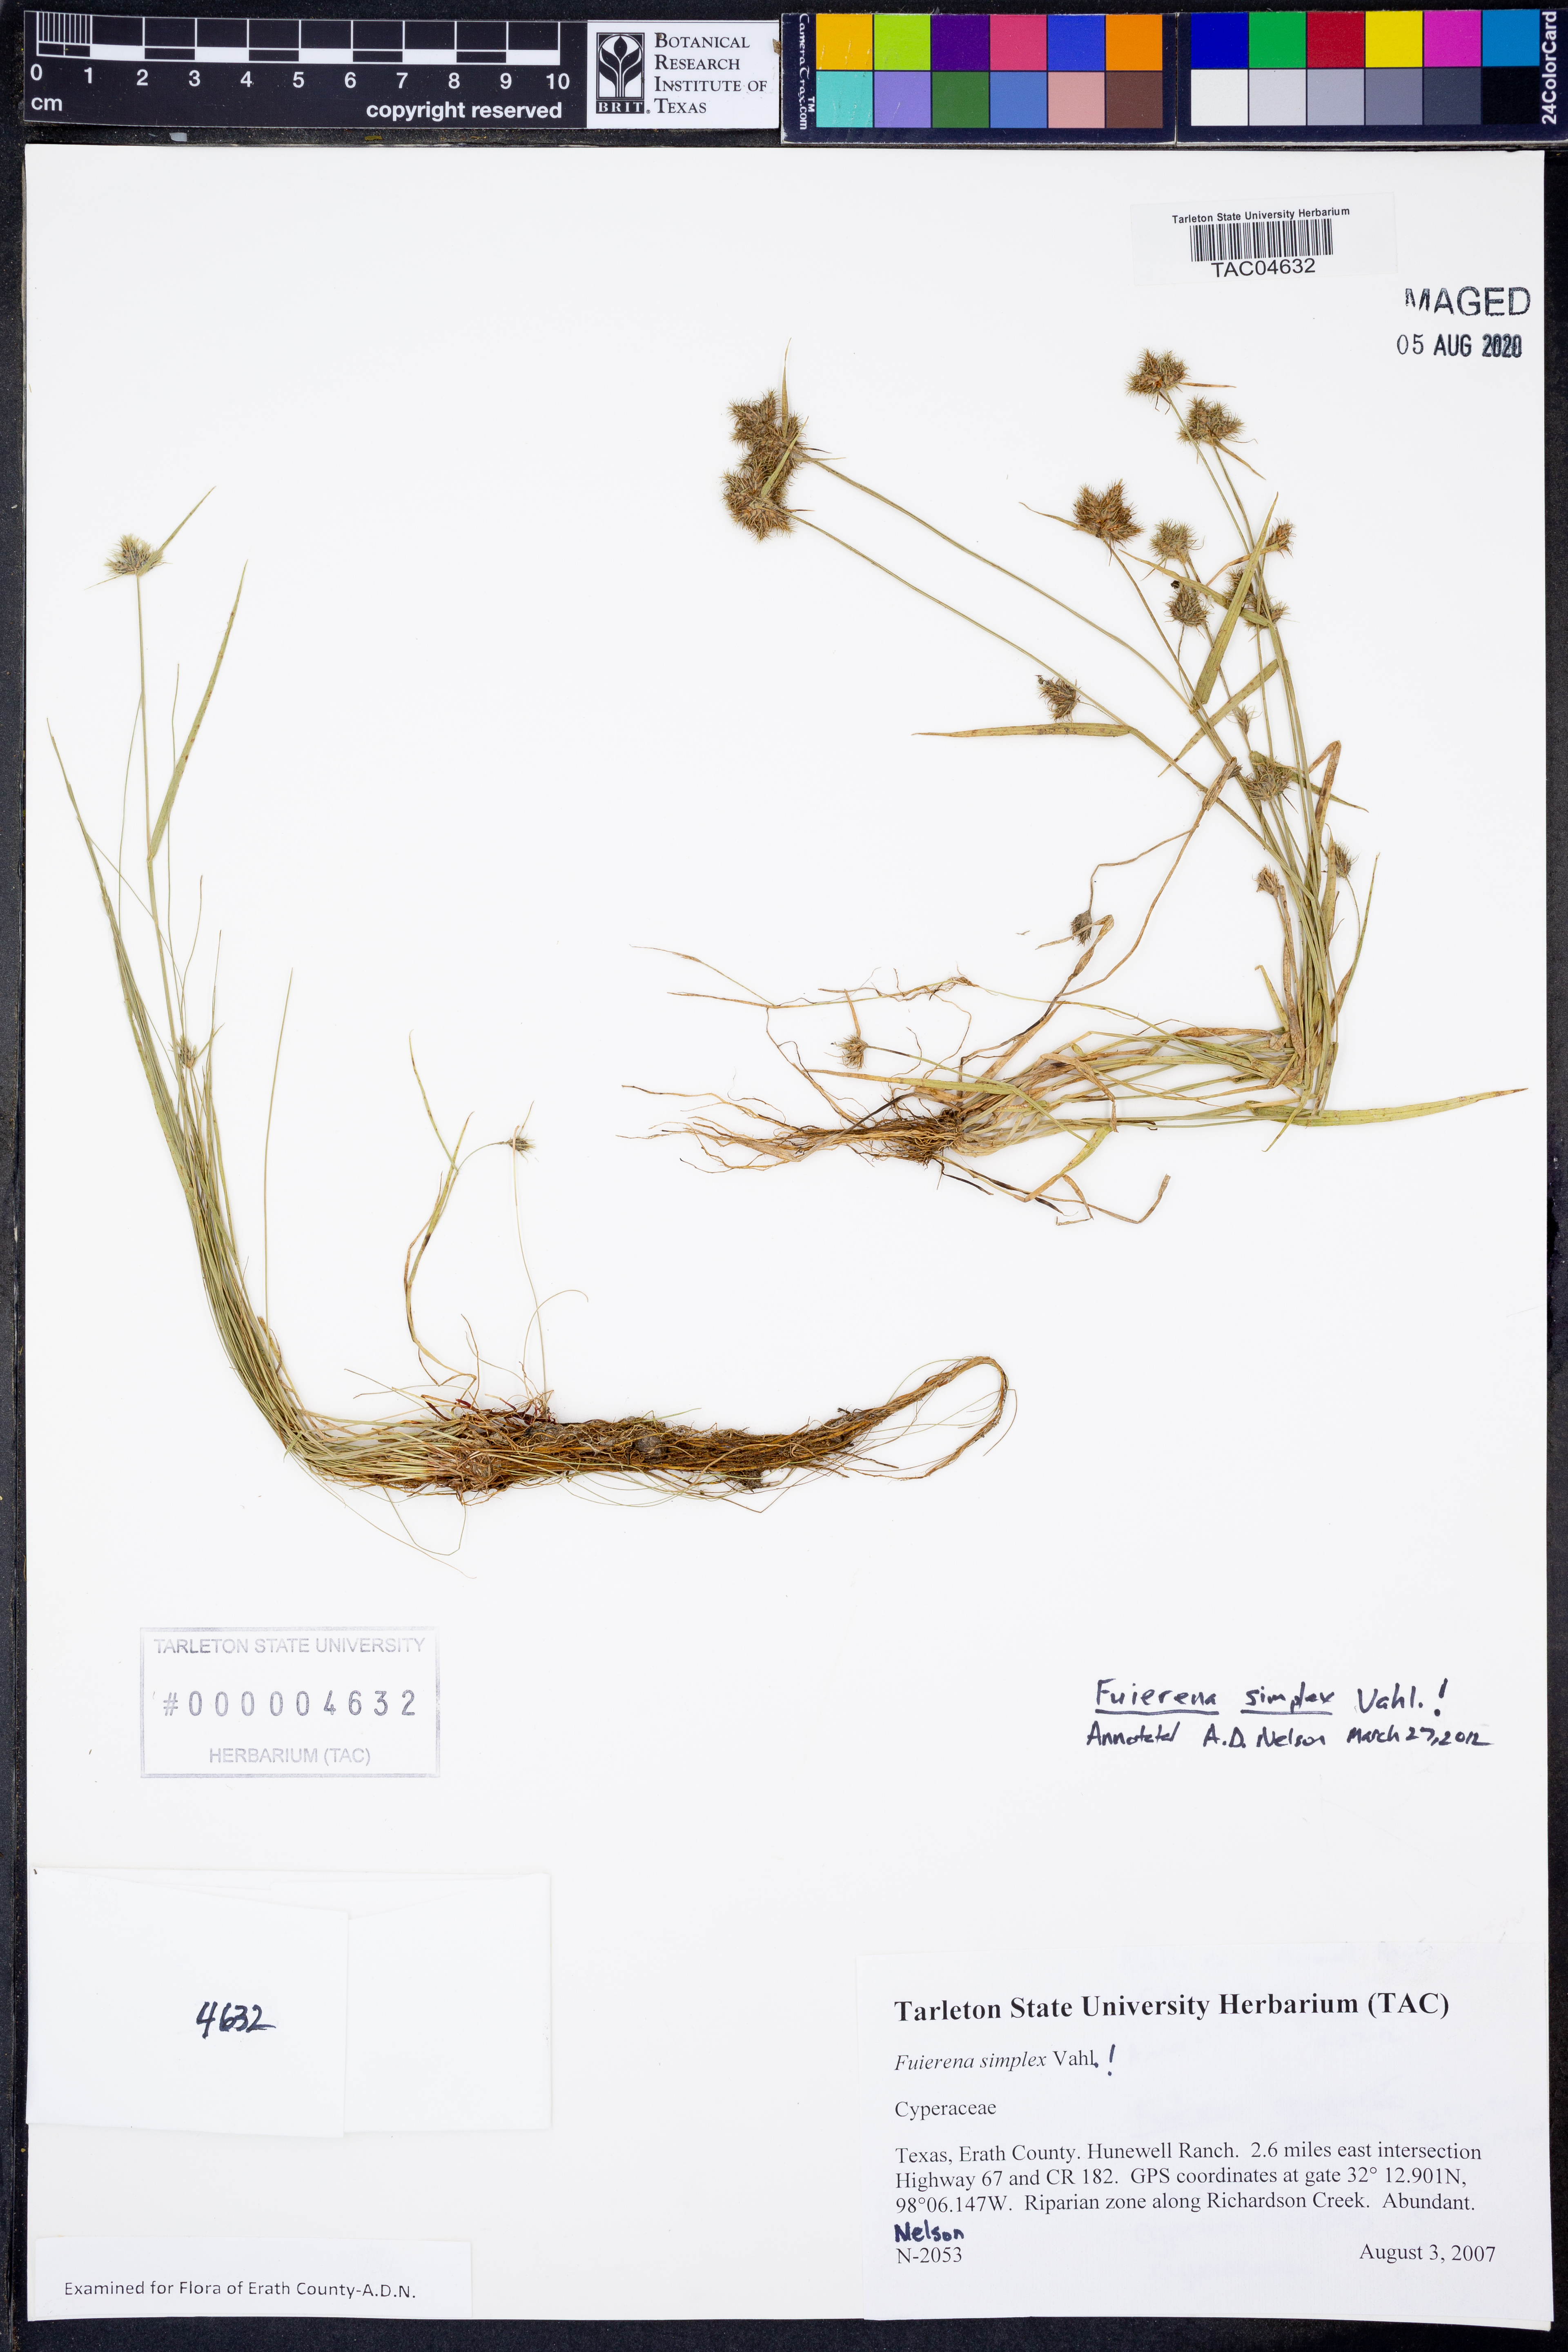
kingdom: Plantae
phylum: Tracheophyta
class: Liliopsida
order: Poales
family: Cyperaceae
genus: Fuirena
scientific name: Fuirena simplex
